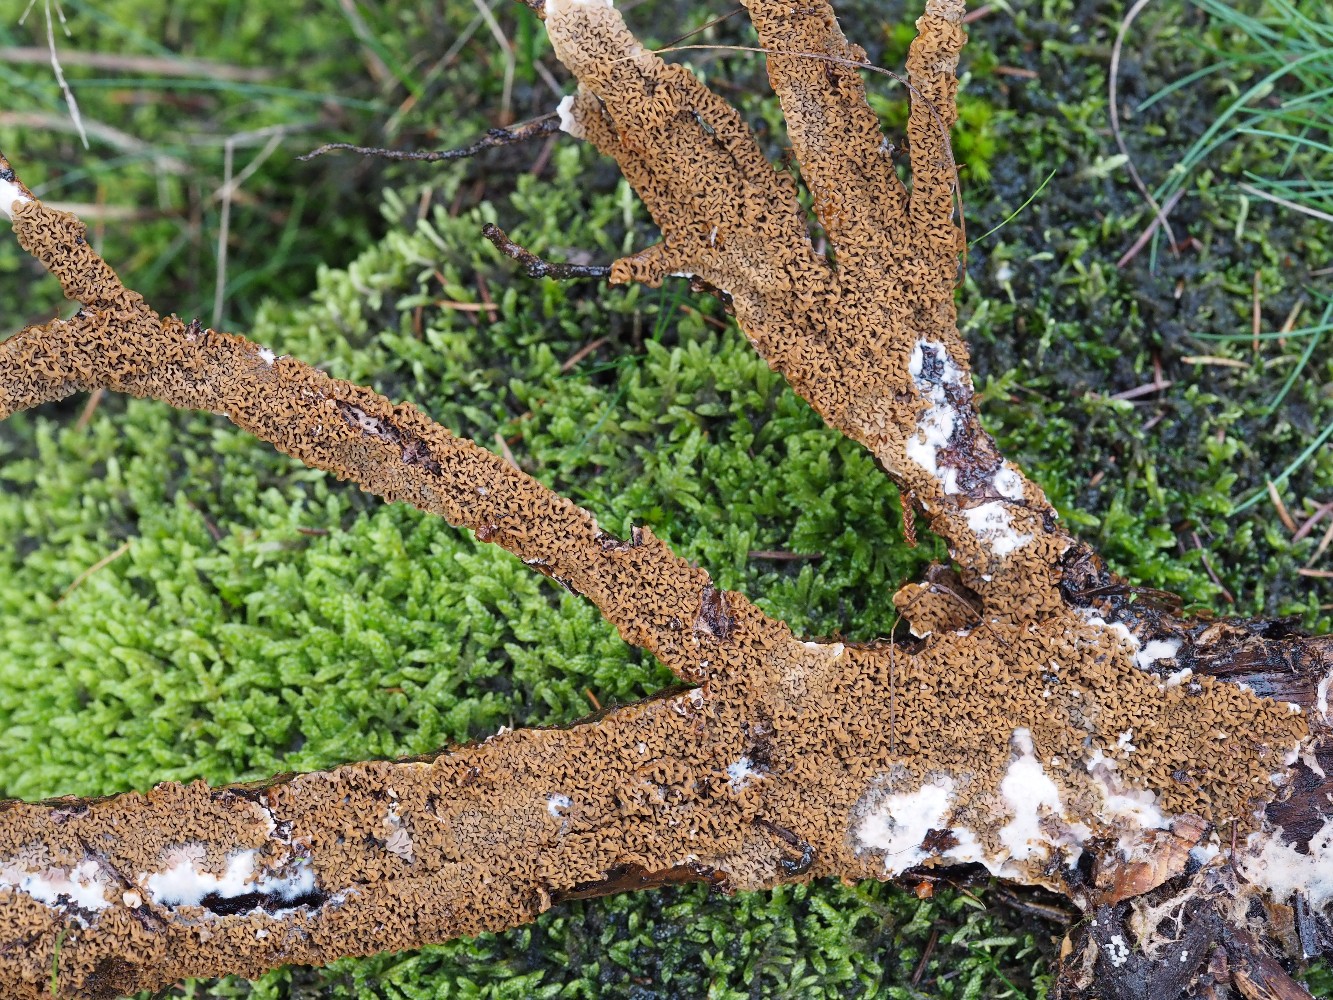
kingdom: Fungi
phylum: Basidiomycota
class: Agaricomycetes
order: Boletales
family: Serpulaceae
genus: Serpula
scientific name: Serpula himantioides
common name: tyndkødet hussvamp
